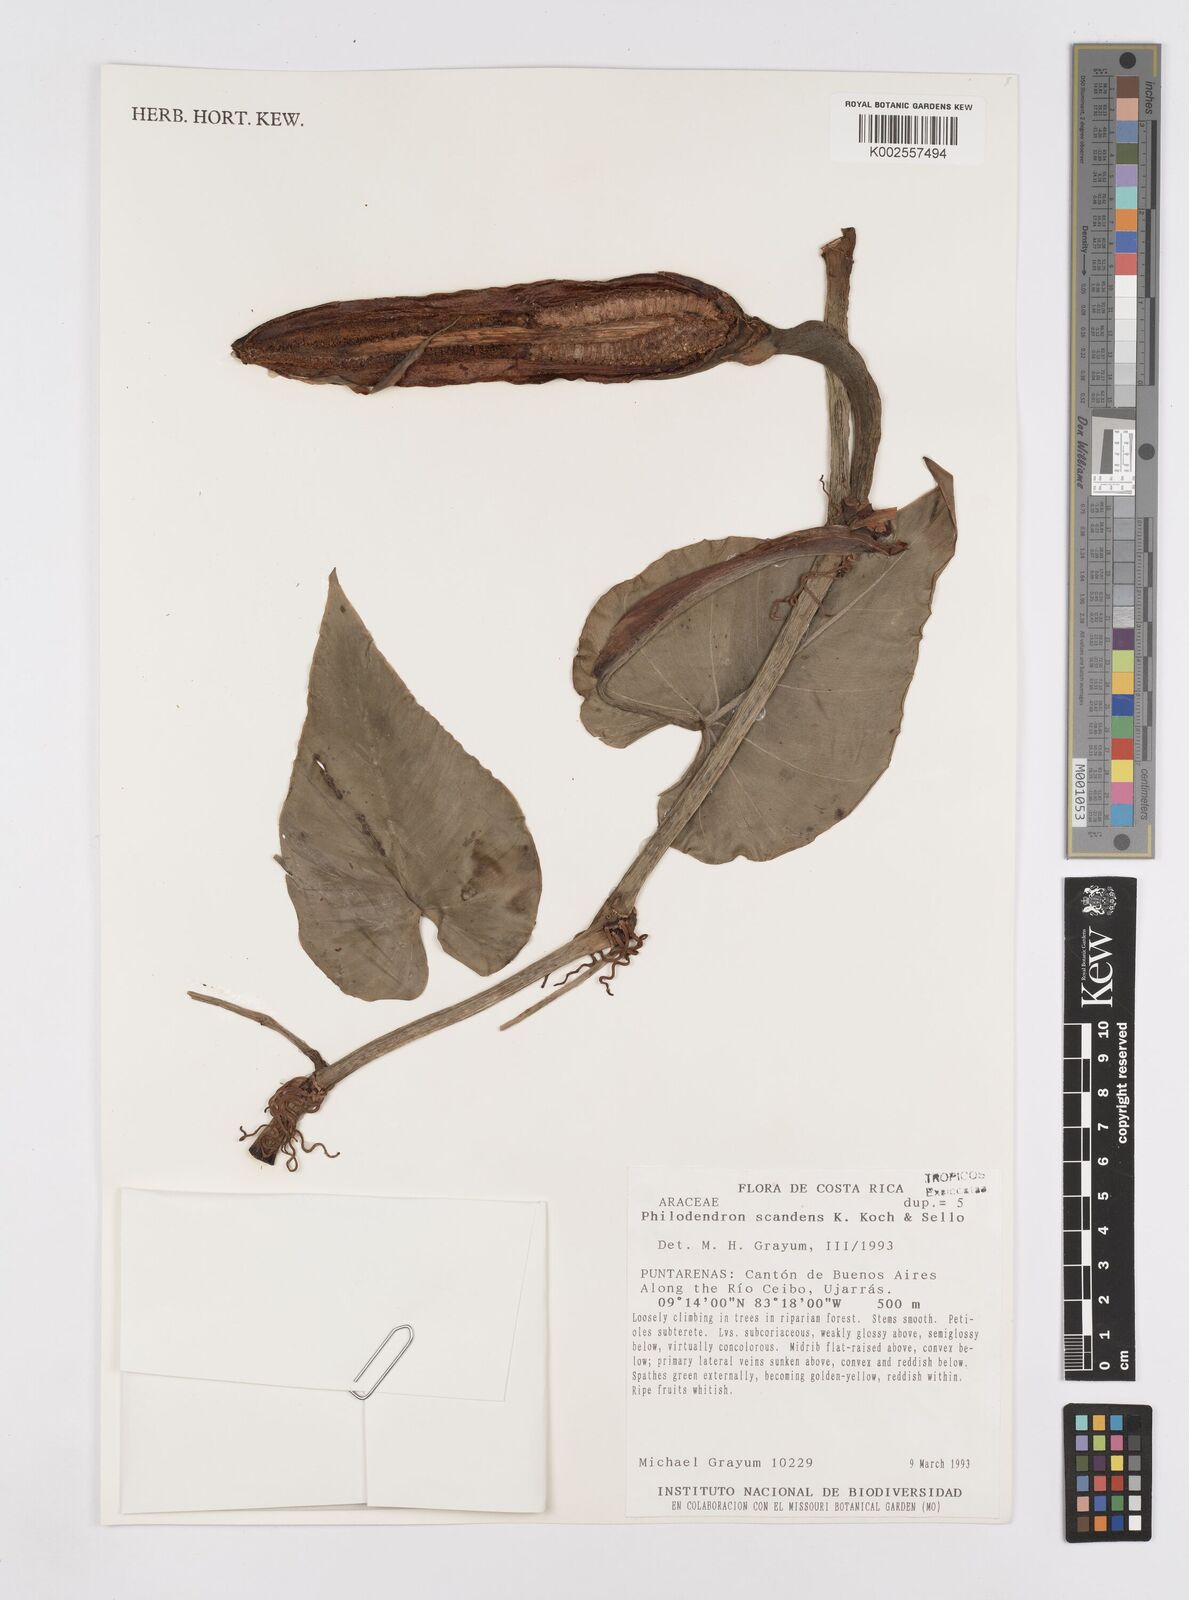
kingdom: Plantae
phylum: Tracheophyta
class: Liliopsida
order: Alismatales
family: Araceae
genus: Philodendron
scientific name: Philodendron hederaceum
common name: Vilevine
